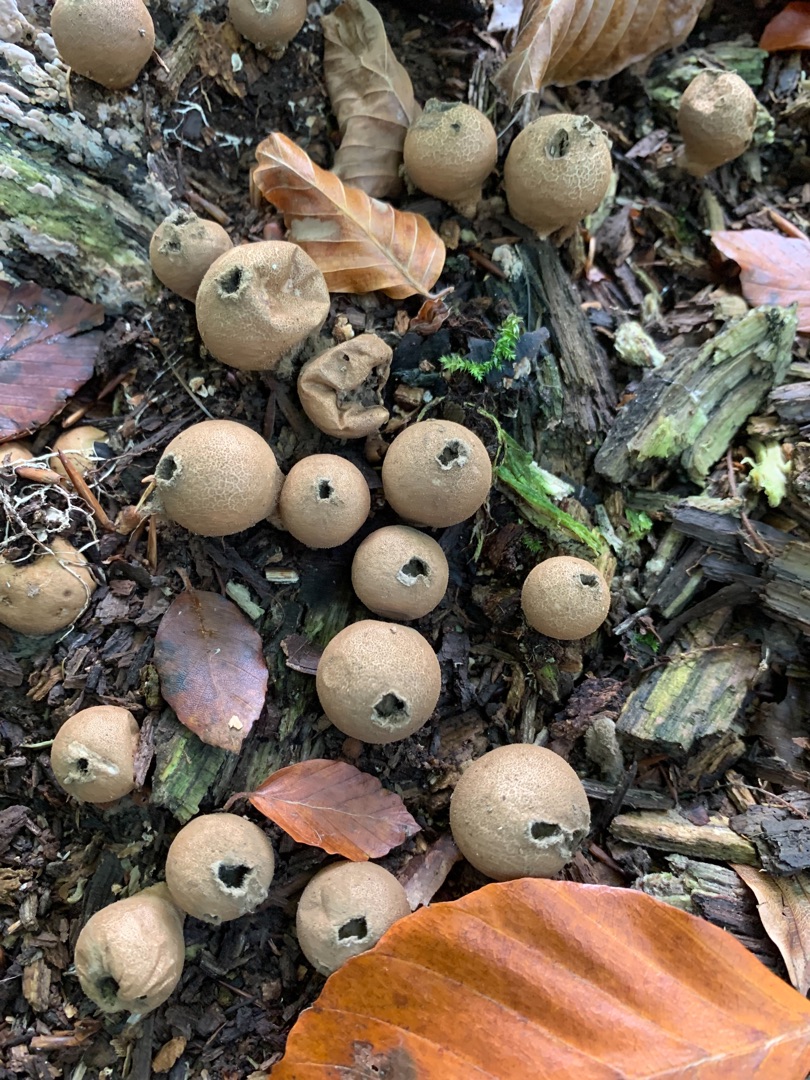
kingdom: Fungi
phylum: Basidiomycota
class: Agaricomycetes
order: Agaricales
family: Lycoperdaceae
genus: Apioperdon
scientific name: Apioperdon pyriforme
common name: Pære-støvbold
